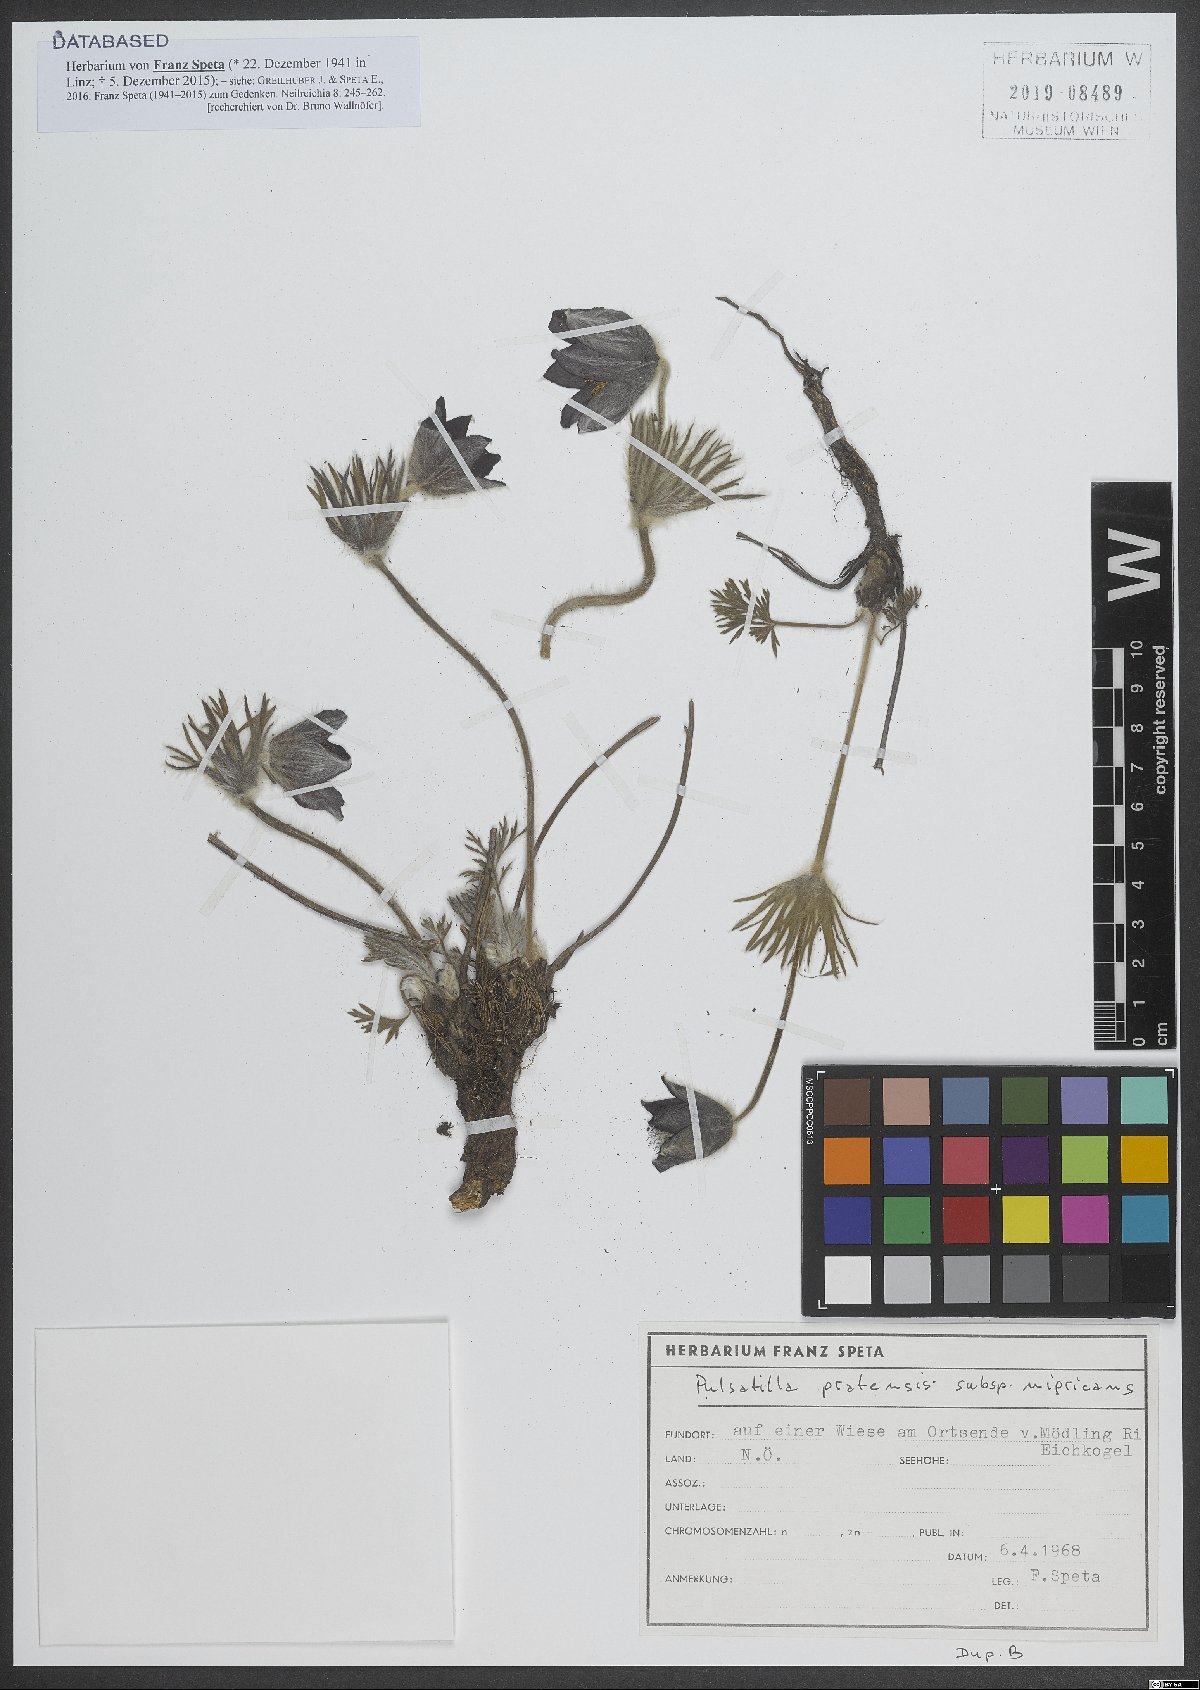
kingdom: Plantae
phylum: Tracheophyta
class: Magnoliopsida
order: Ranunculales
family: Ranunculaceae
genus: Pulsatilla
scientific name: Pulsatilla pratensis
